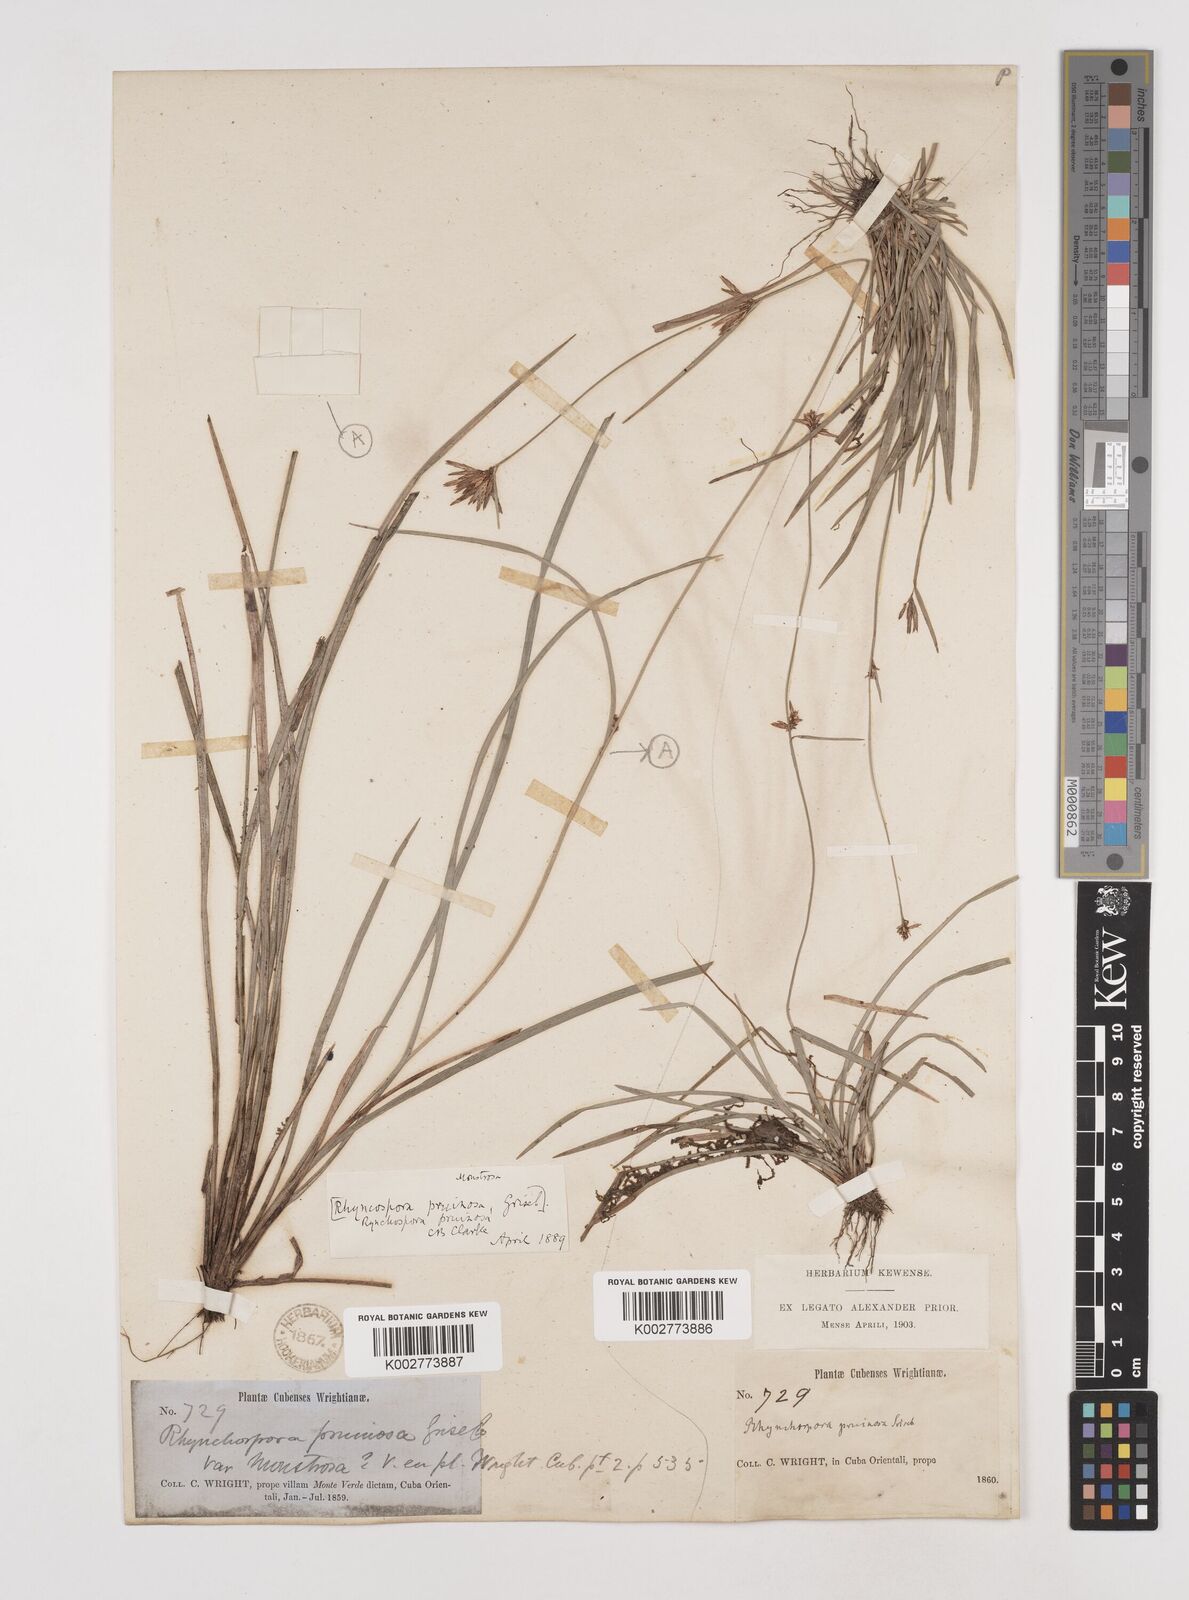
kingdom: Plantae
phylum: Tracheophyta
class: Liliopsida
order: Poales
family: Cyperaceae
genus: Rhynchospora
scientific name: Rhynchospora pruinosa
